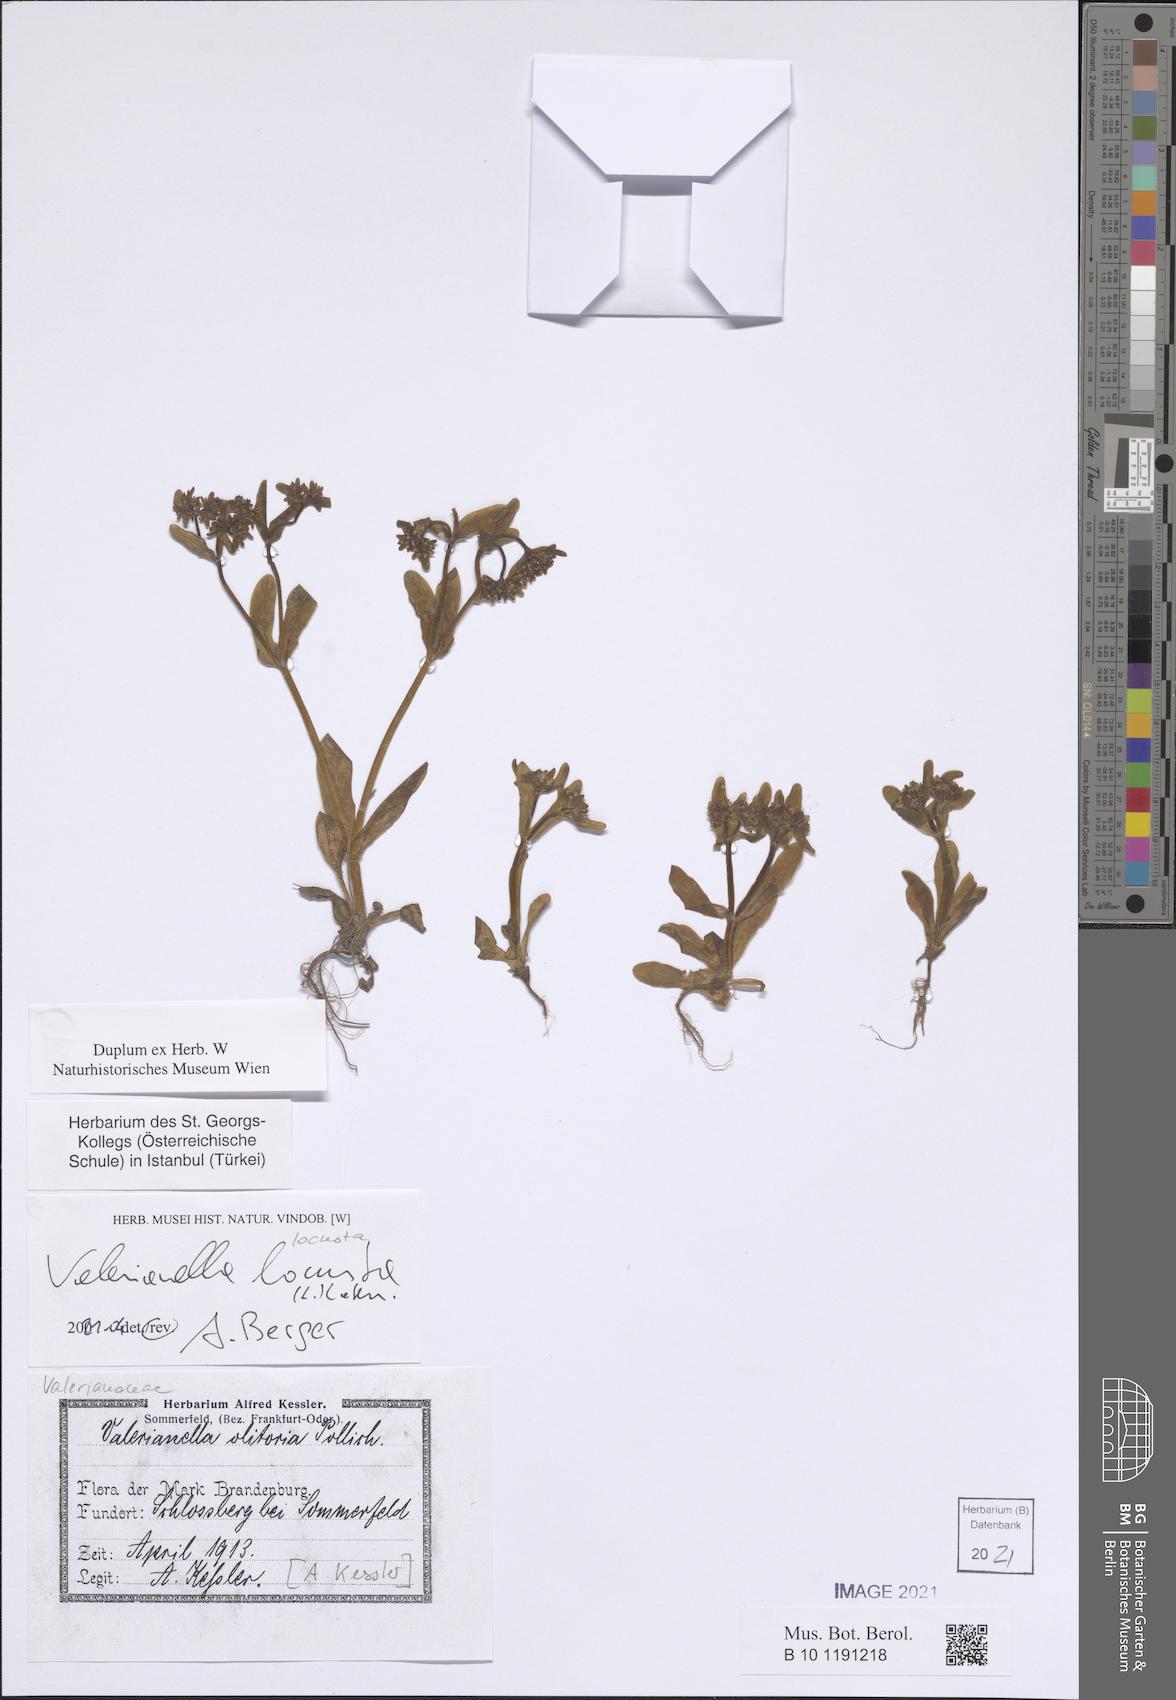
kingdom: Plantae
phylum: Tracheophyta
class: Magnoliopsida
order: Dipsacales
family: Caprifoliaceae
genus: Valerianella
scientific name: Valerianella locusta
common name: Common cornsalad
